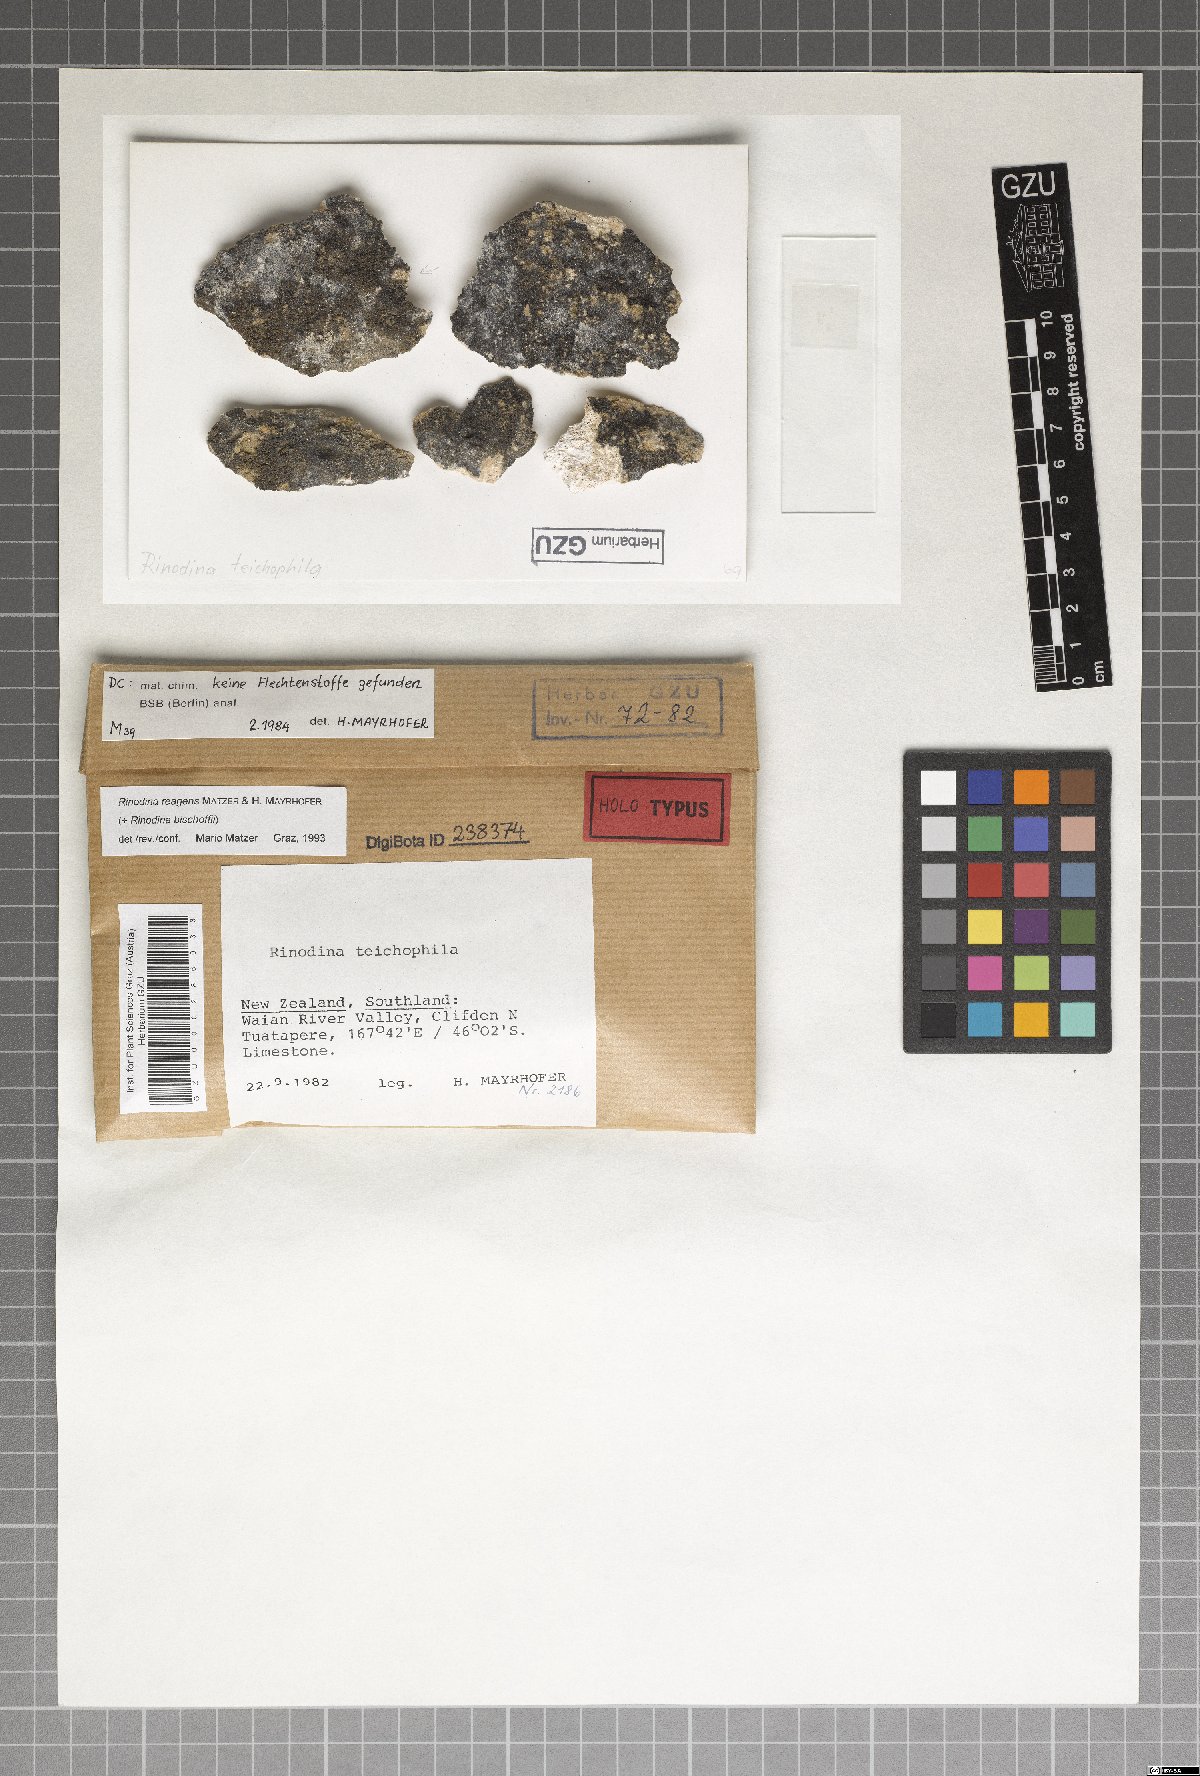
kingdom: Fungi
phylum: Ascomycota
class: Lecanoromycetes
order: Caliciales
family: Physciaceae
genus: Johnsheardia
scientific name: Johnsheardia reagens
